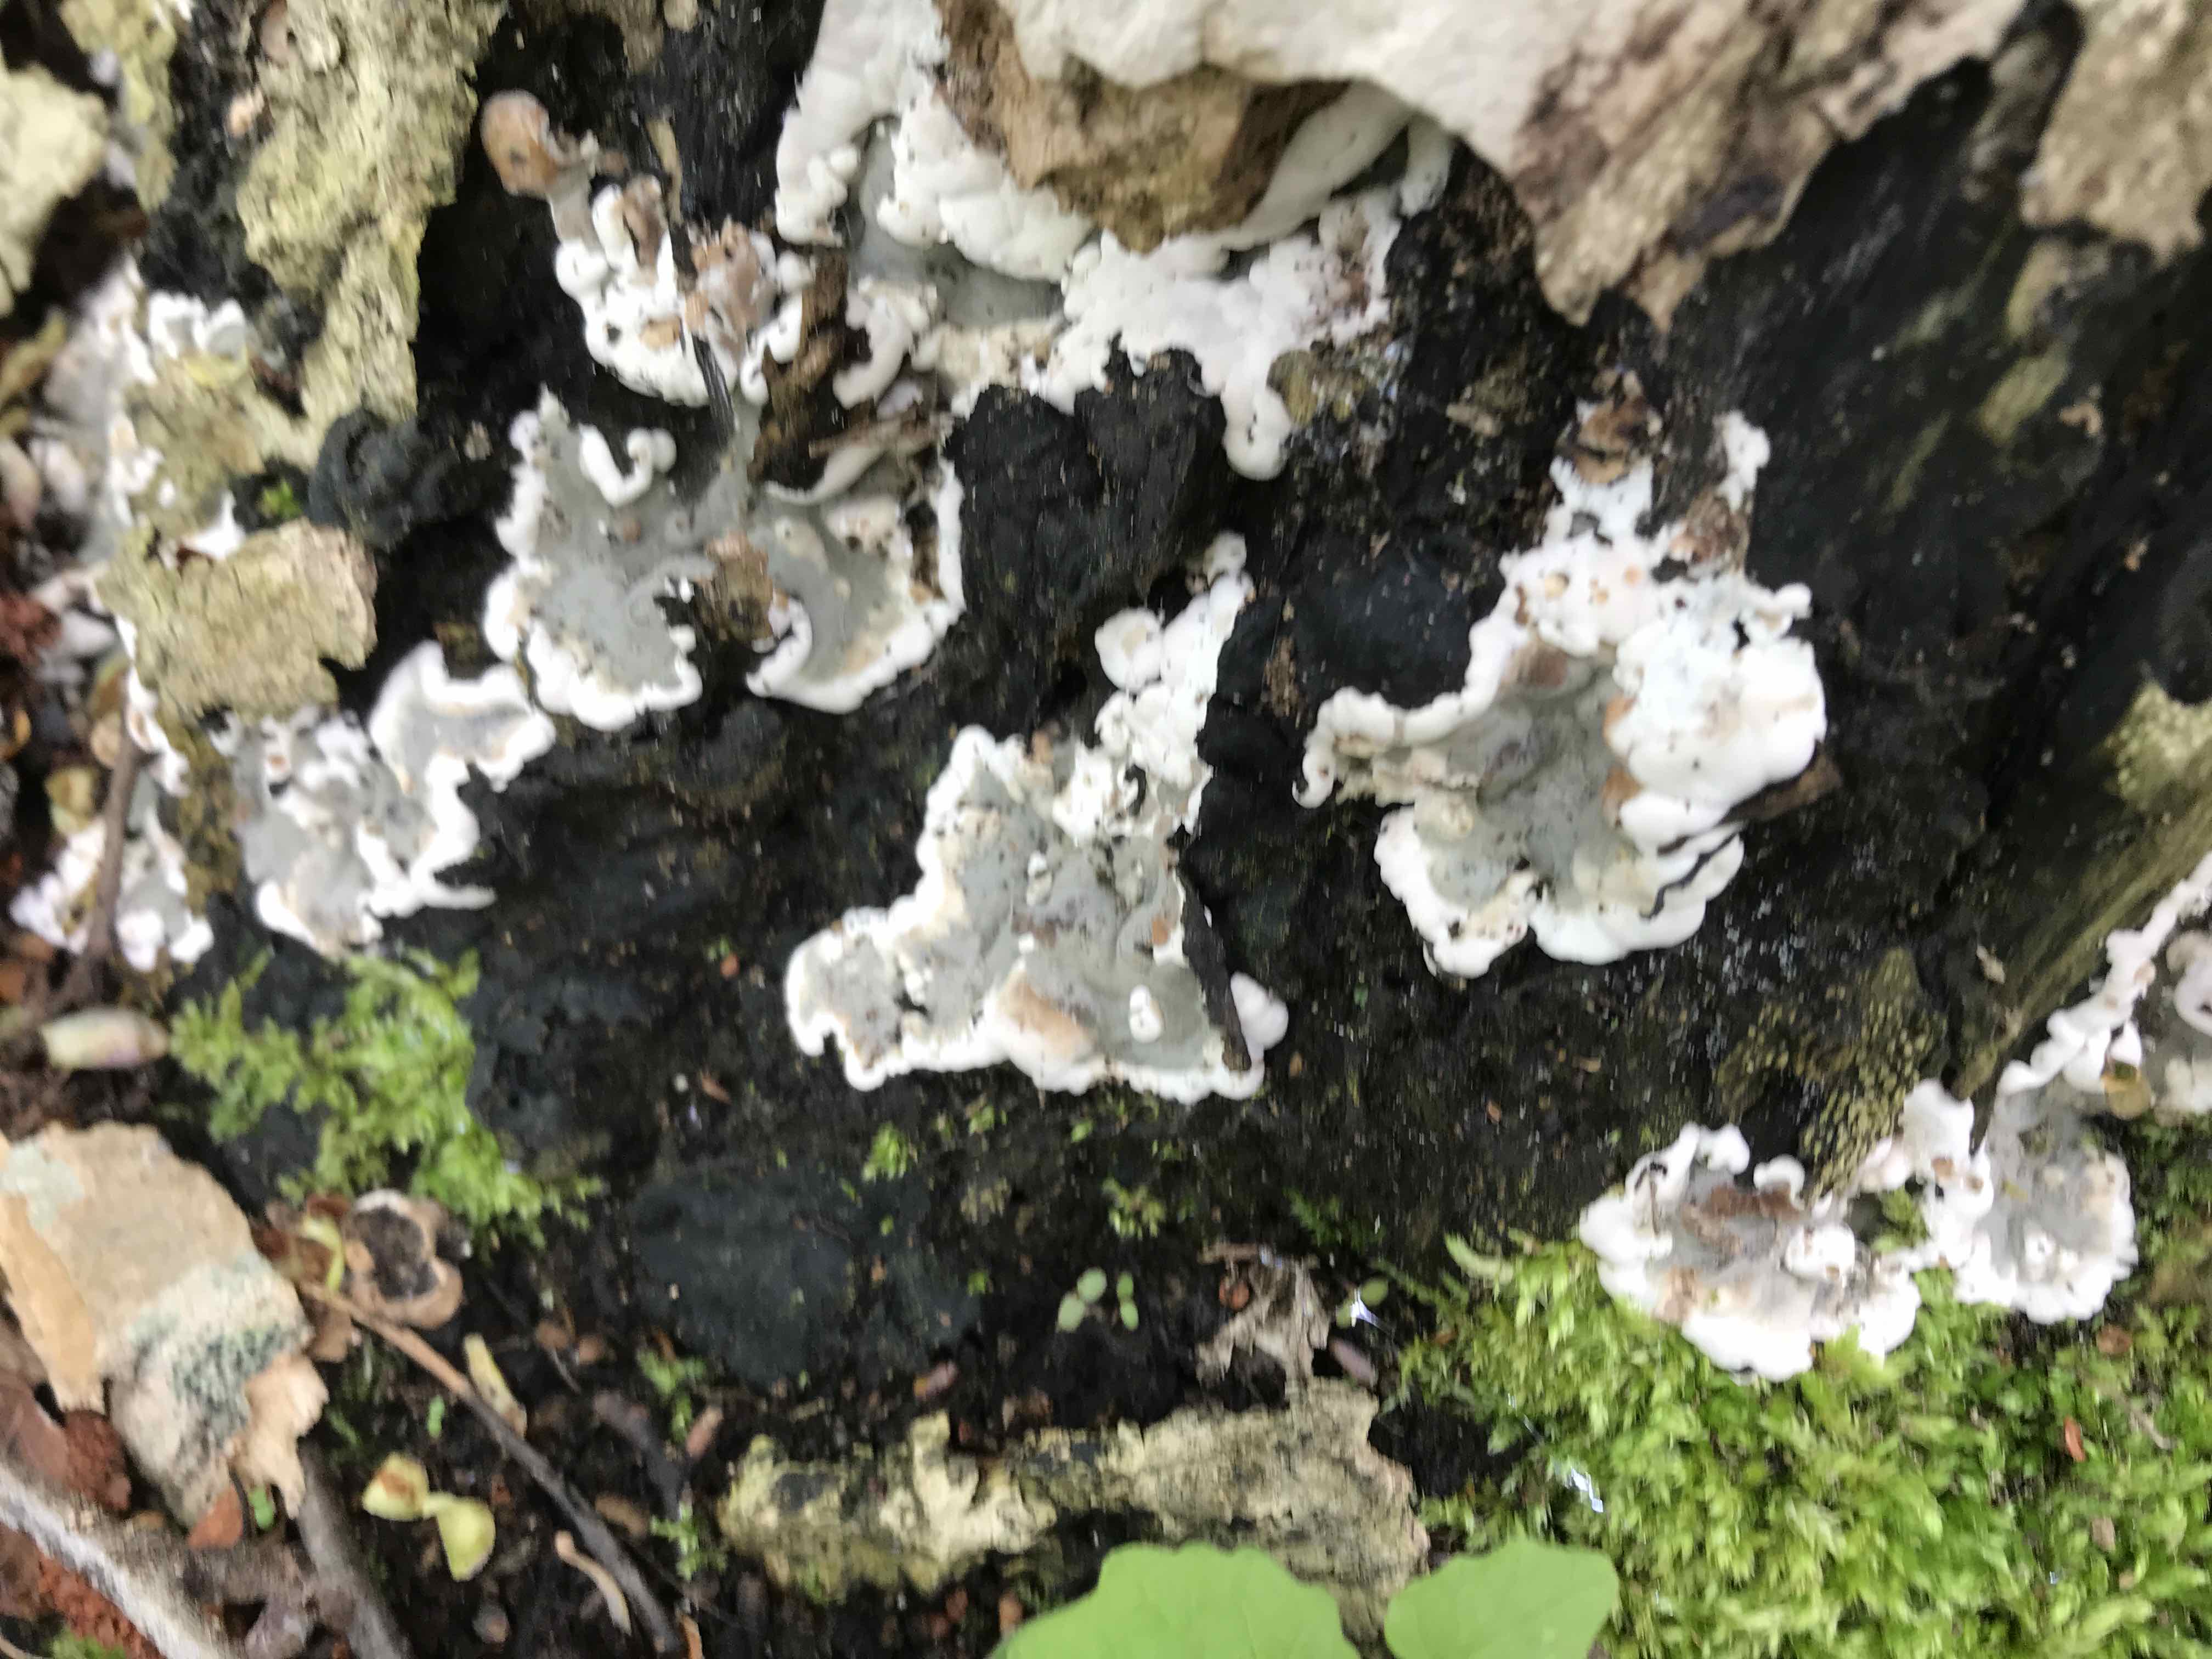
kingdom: Fungi
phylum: Ascomycota
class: Sordariomycetes
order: Xylariales
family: Xylariaceae
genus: Kretzschmaria
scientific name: Kretzschmaria deusta
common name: stor kulsvamp
